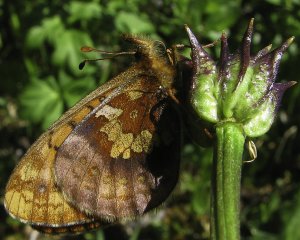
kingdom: Animalia
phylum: Arthropoda
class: Insecta
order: Lepidoptera
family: Nymphalidae
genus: Boloria
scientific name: Boloria epithore
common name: Pacific Fritillary
